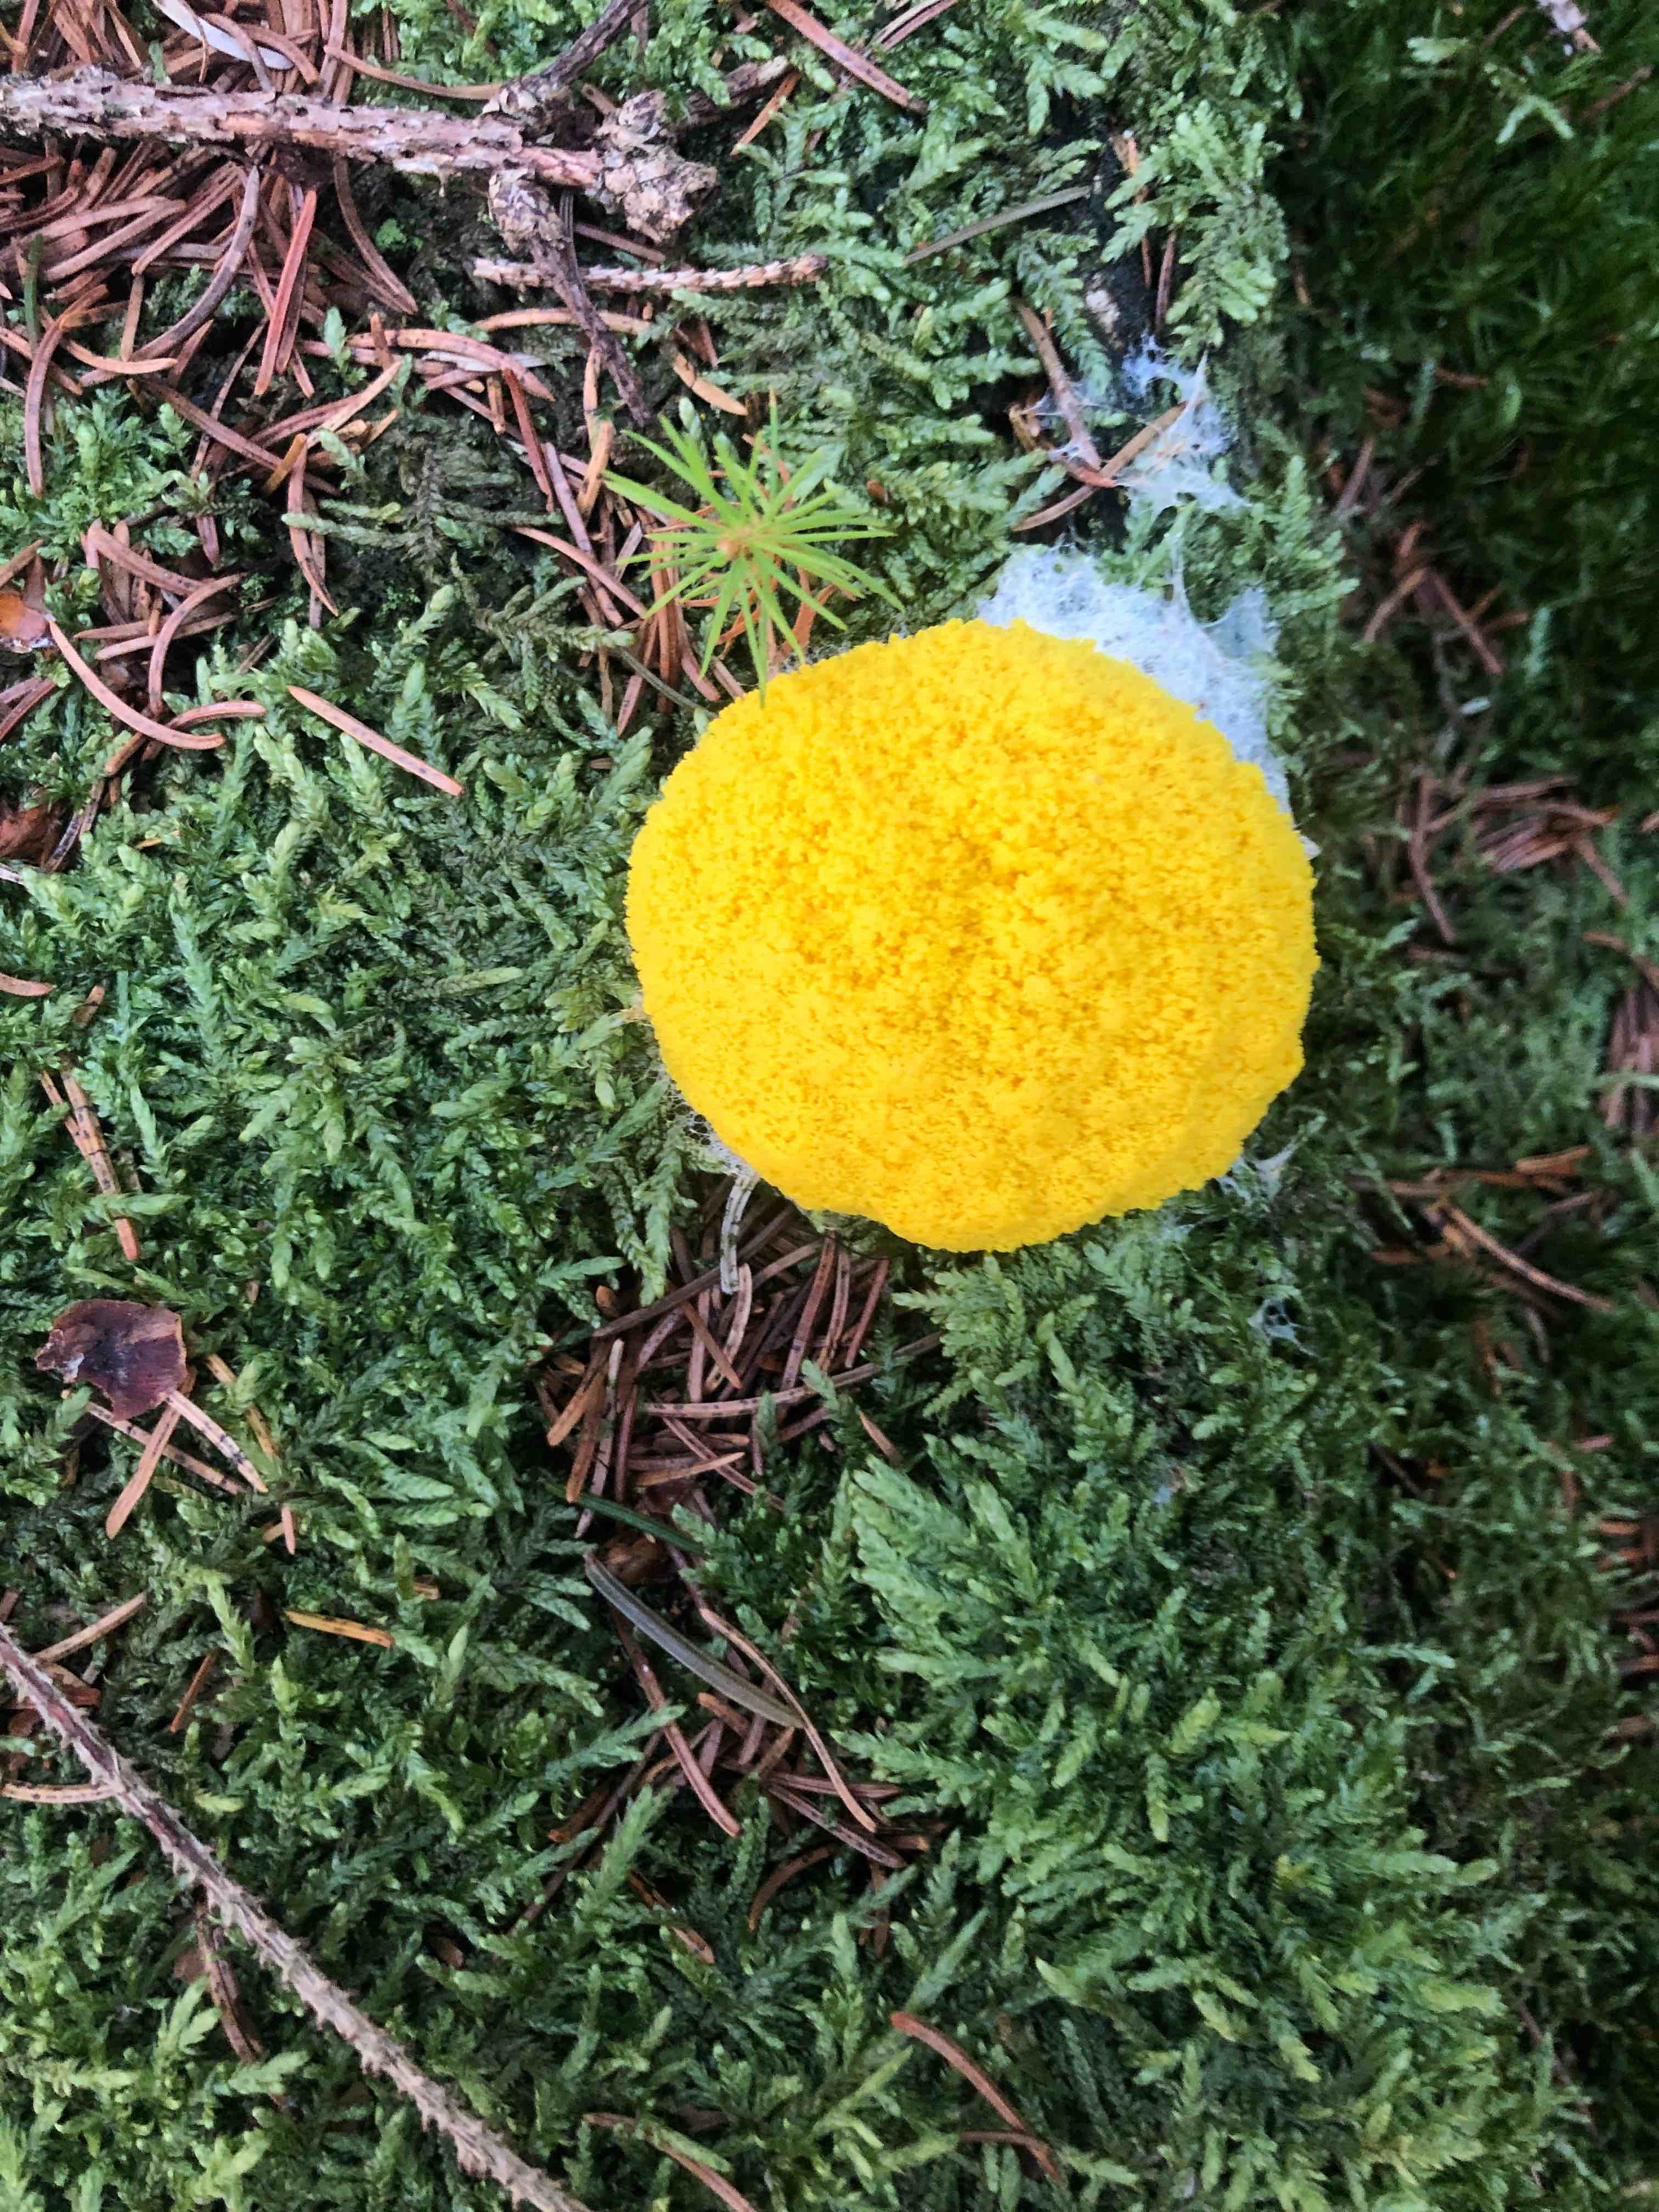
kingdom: Protozoa
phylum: Mycetozoa
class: Myxomycetes
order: Physarales
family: Physaraceae
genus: Fuligo
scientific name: Fuligo septica
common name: gul troldsmør
